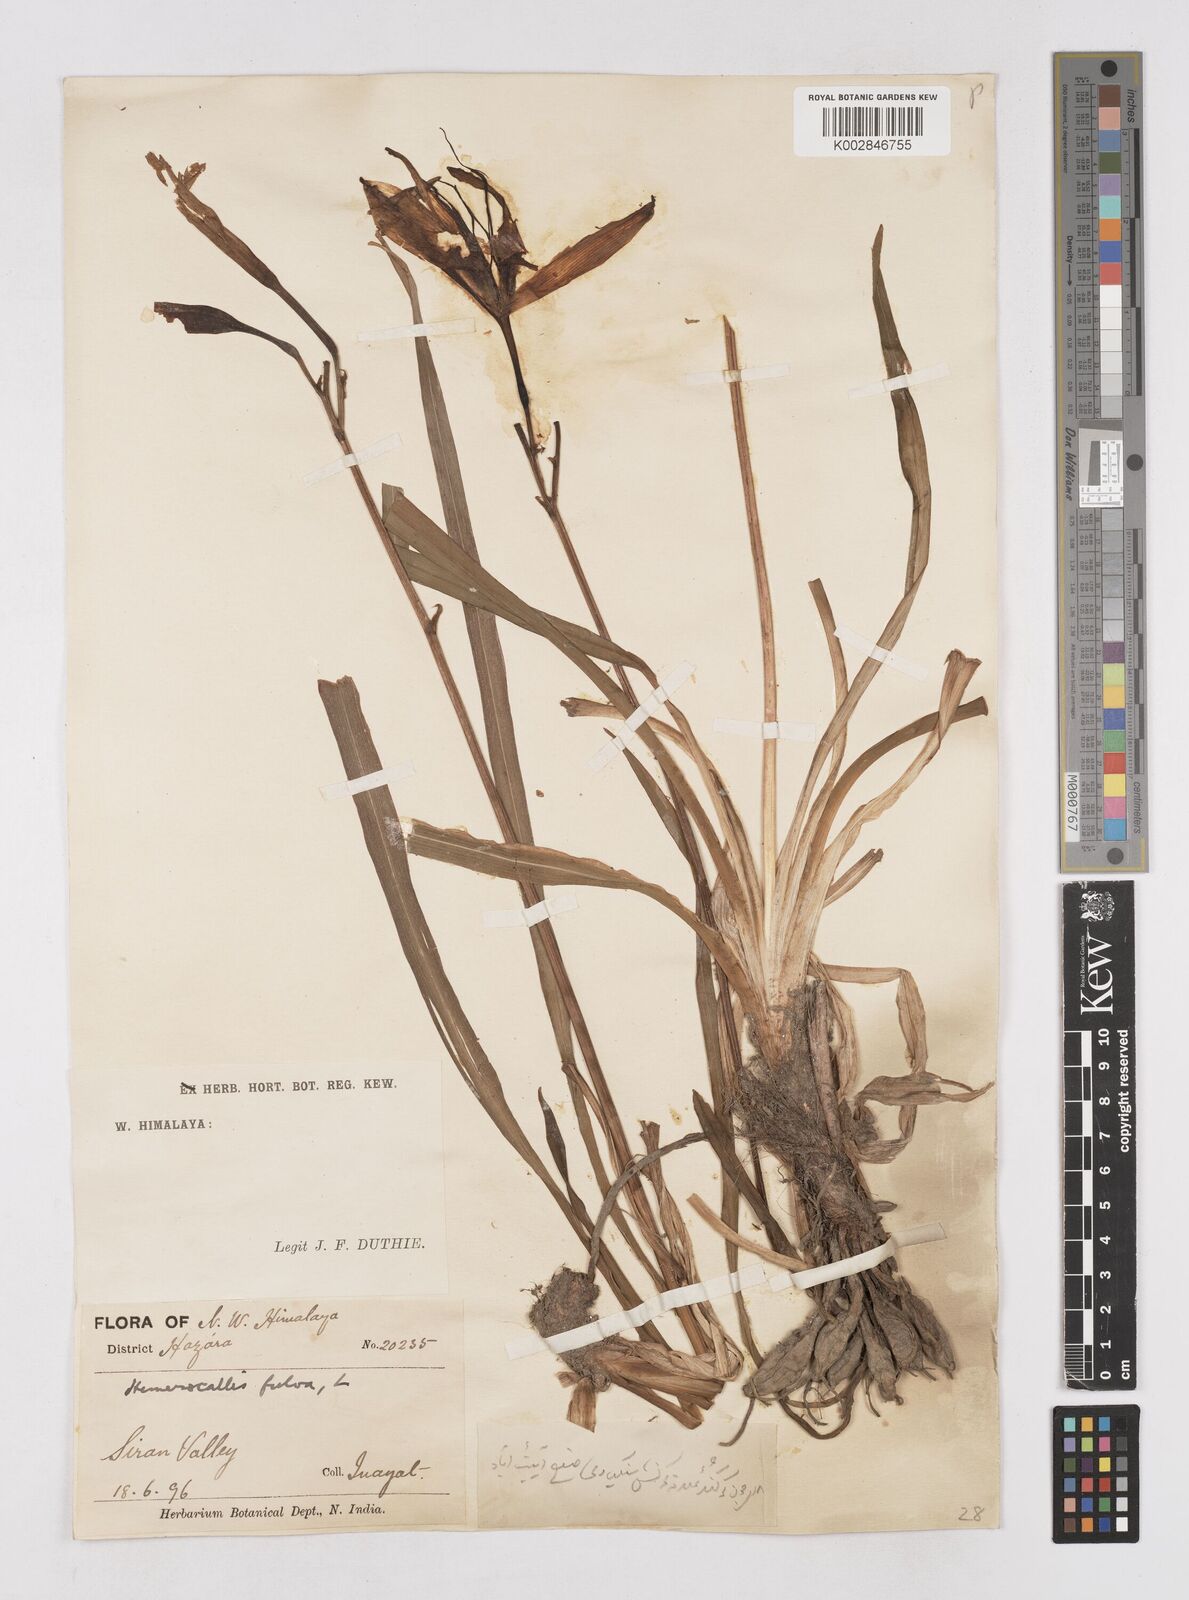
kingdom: Plantae
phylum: Tracheophyta
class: Liliopsida
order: Asparagales
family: Asphodelaceae
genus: Hemerocallis
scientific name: Hemerocallis fulva
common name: Orange day-lily
